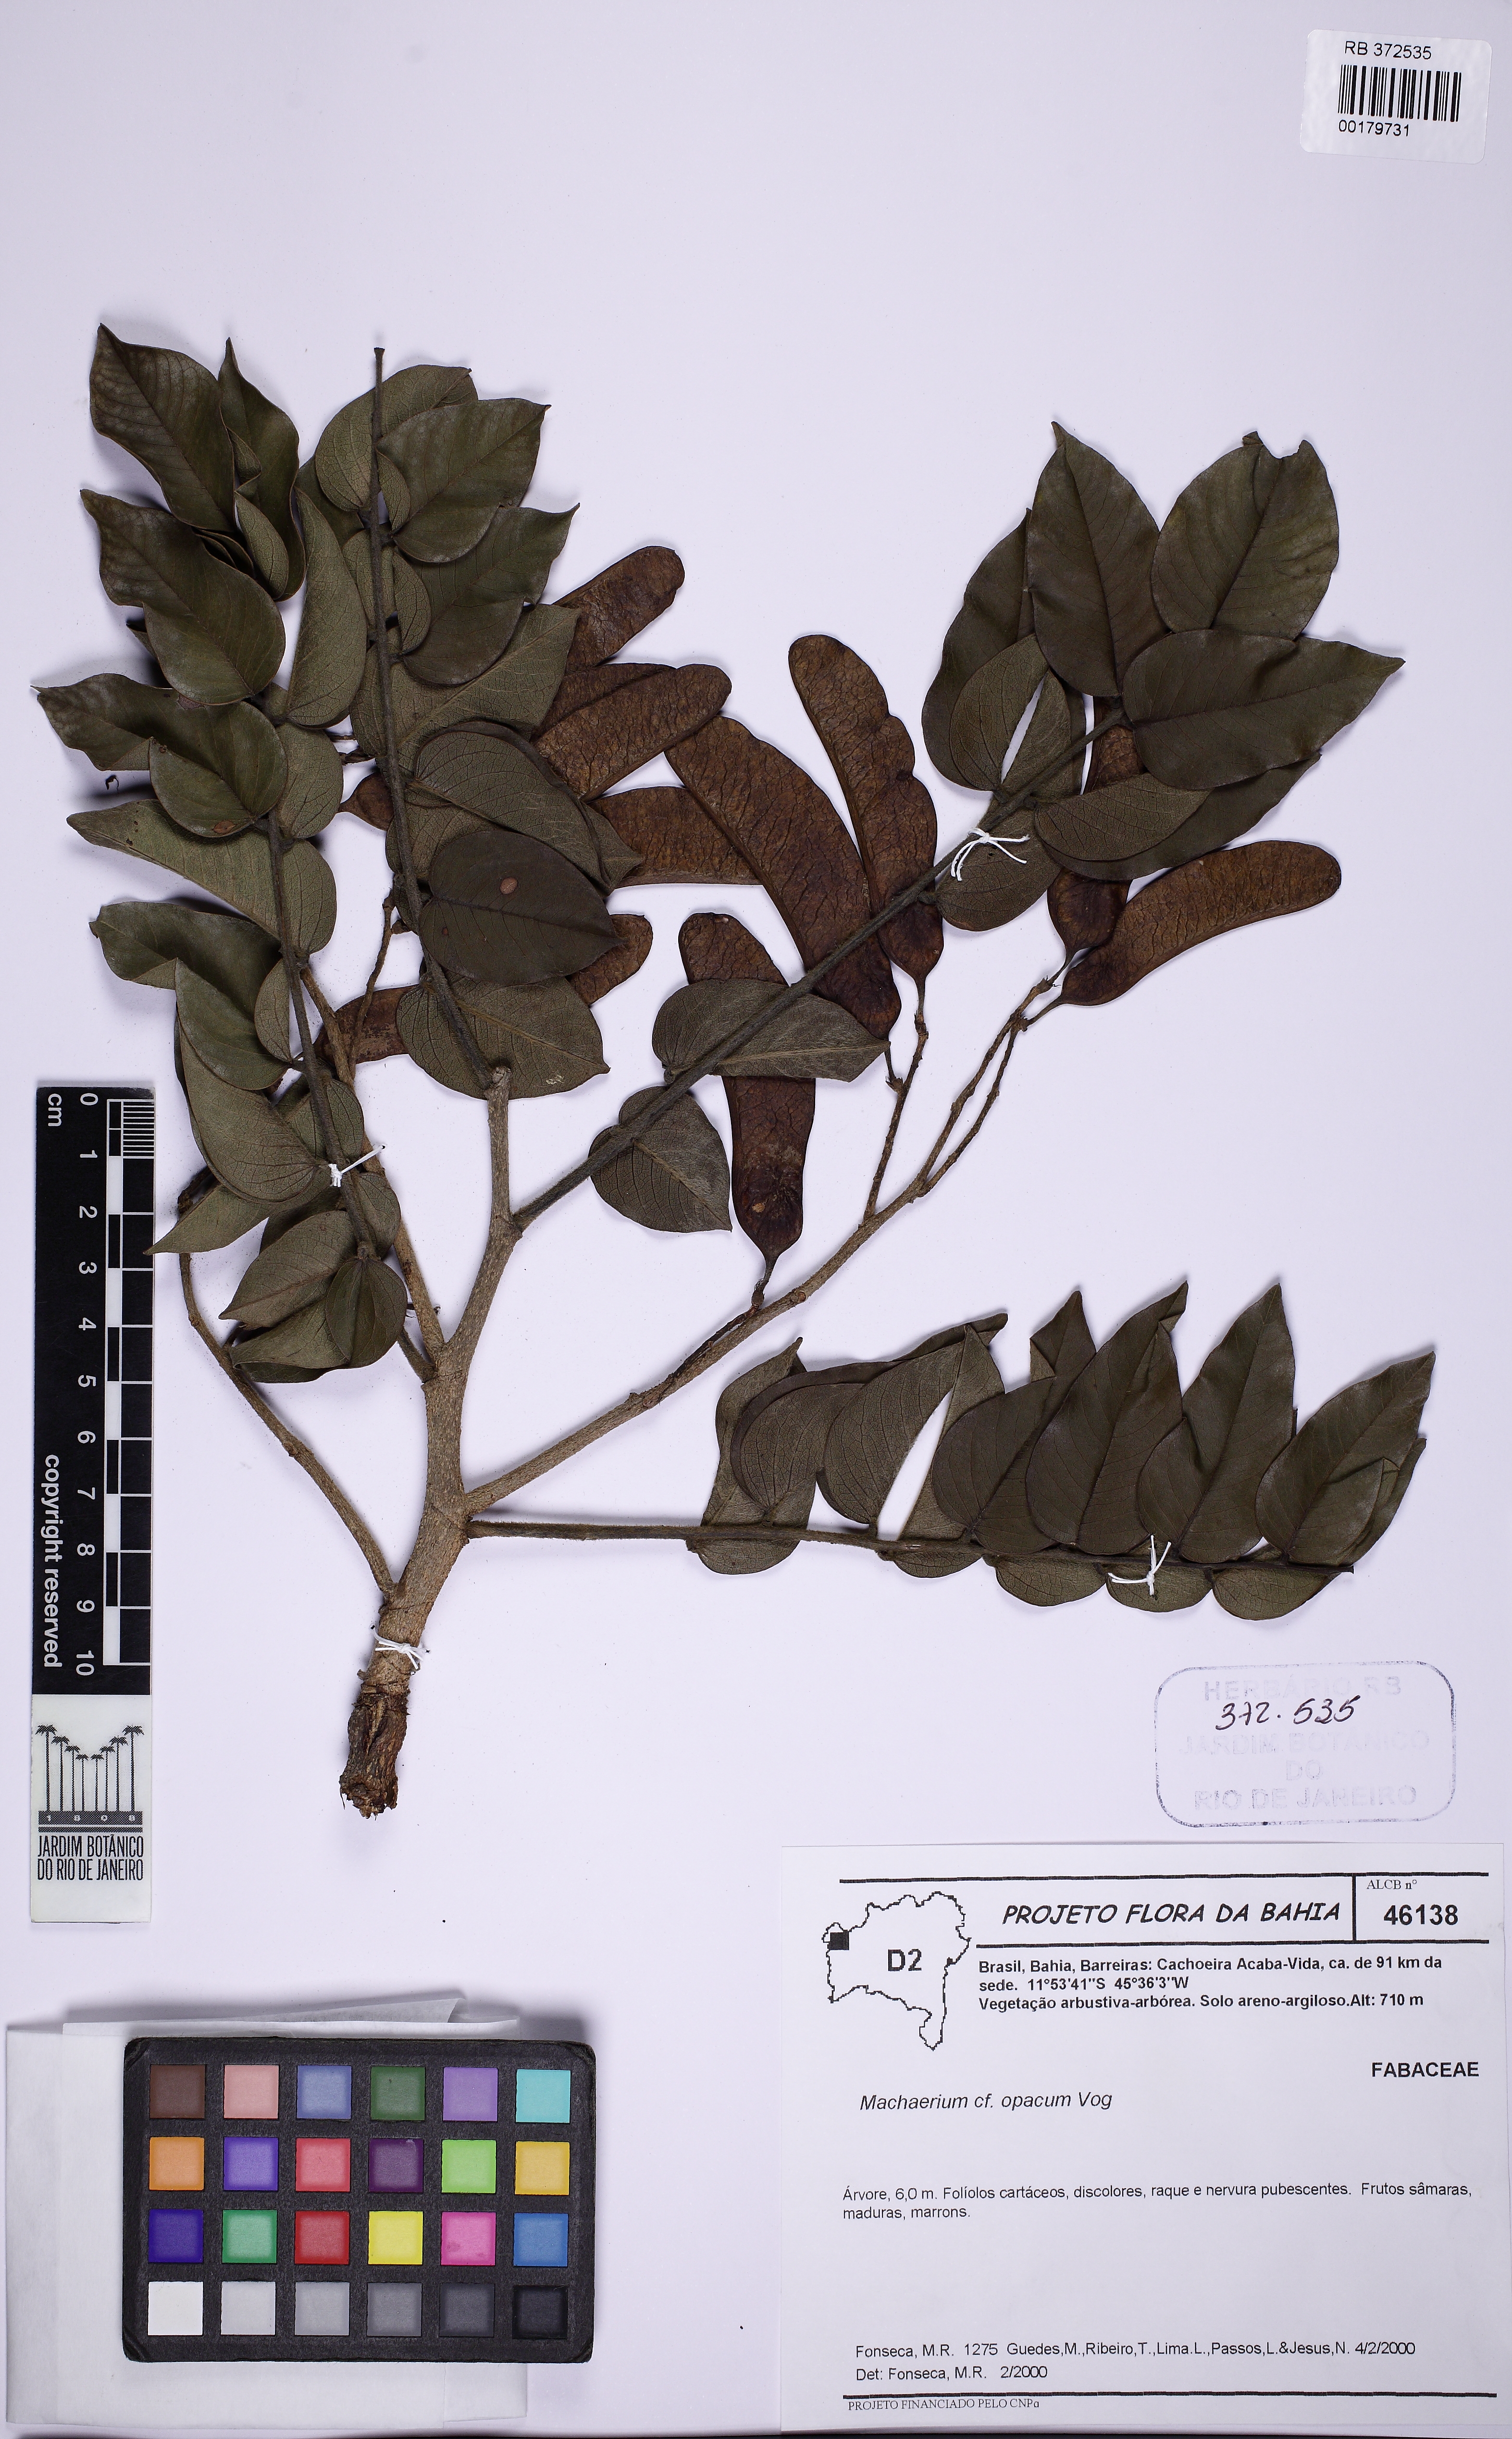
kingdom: Plantae
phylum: Tracheophyta
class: Magnoliopsida
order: Fabales
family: Fabaceae
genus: Machaerium
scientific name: Machaerium opacum
